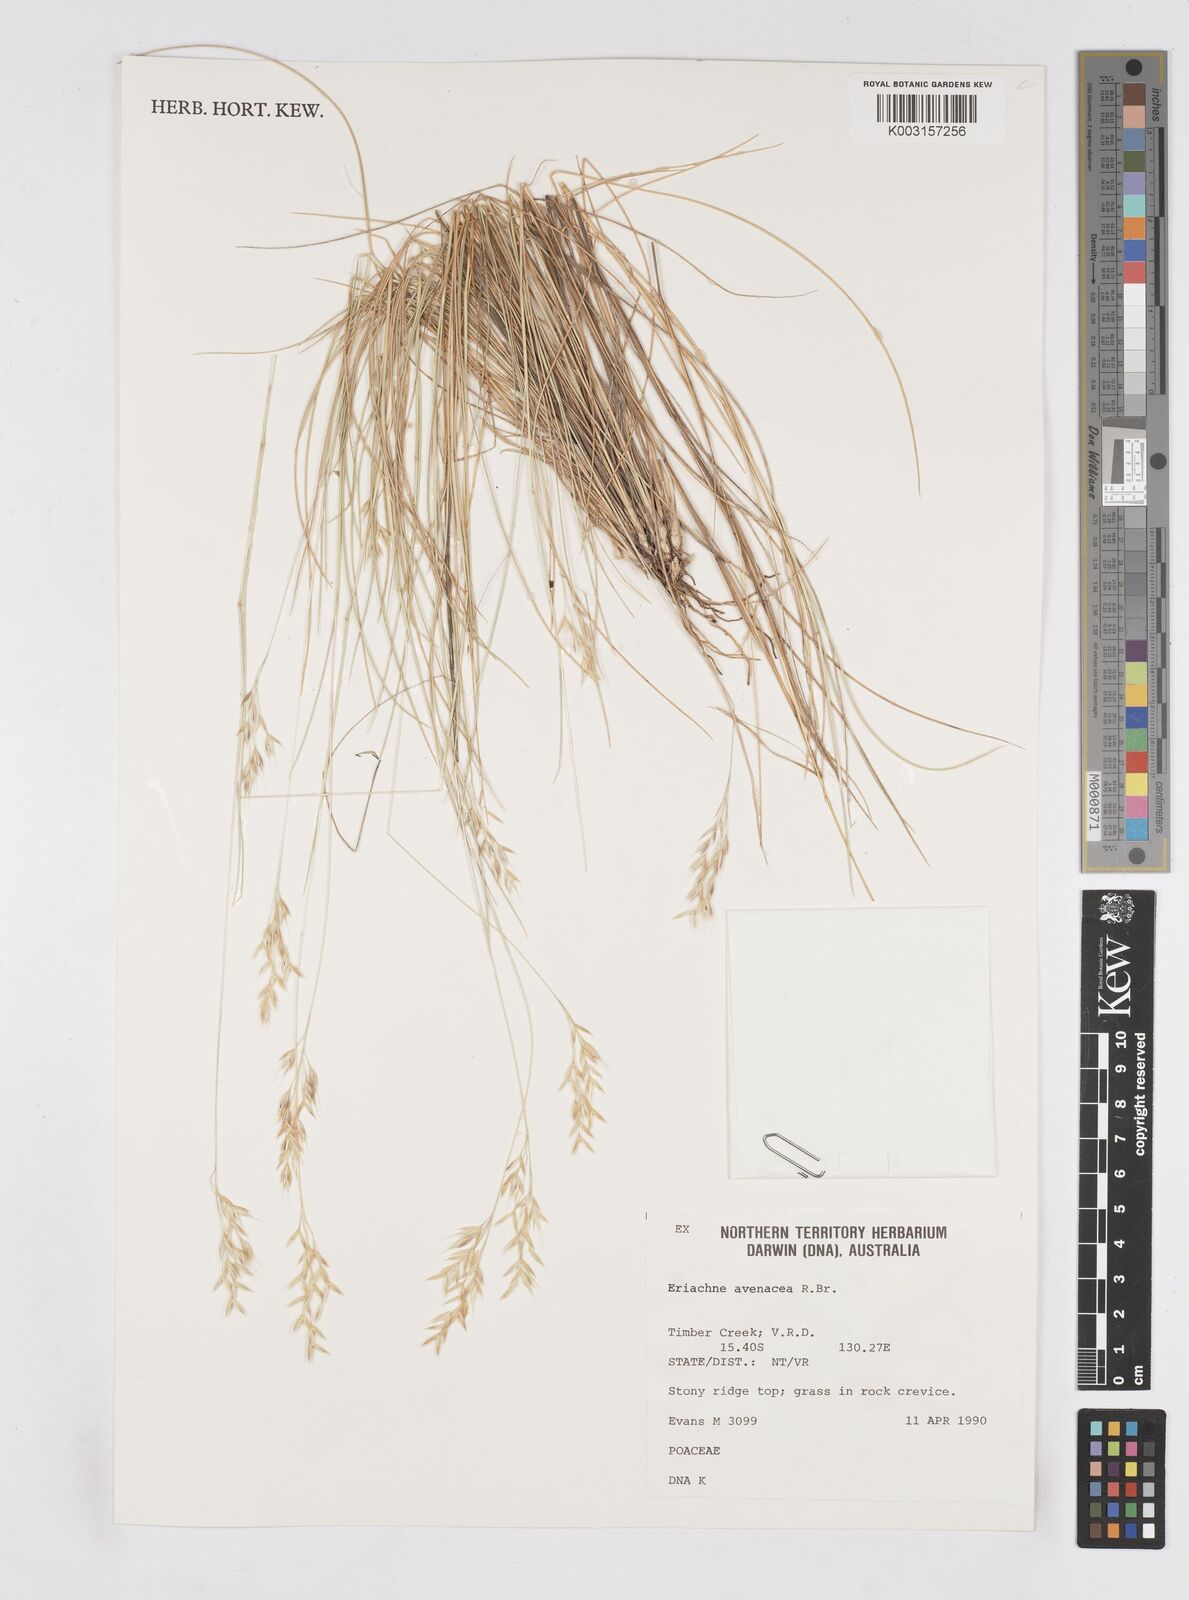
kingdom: Plantae
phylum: Tracheophyta
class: Liliopsida
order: Poales
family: Poaceae
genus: Eriachne
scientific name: Eriachne avenacea
